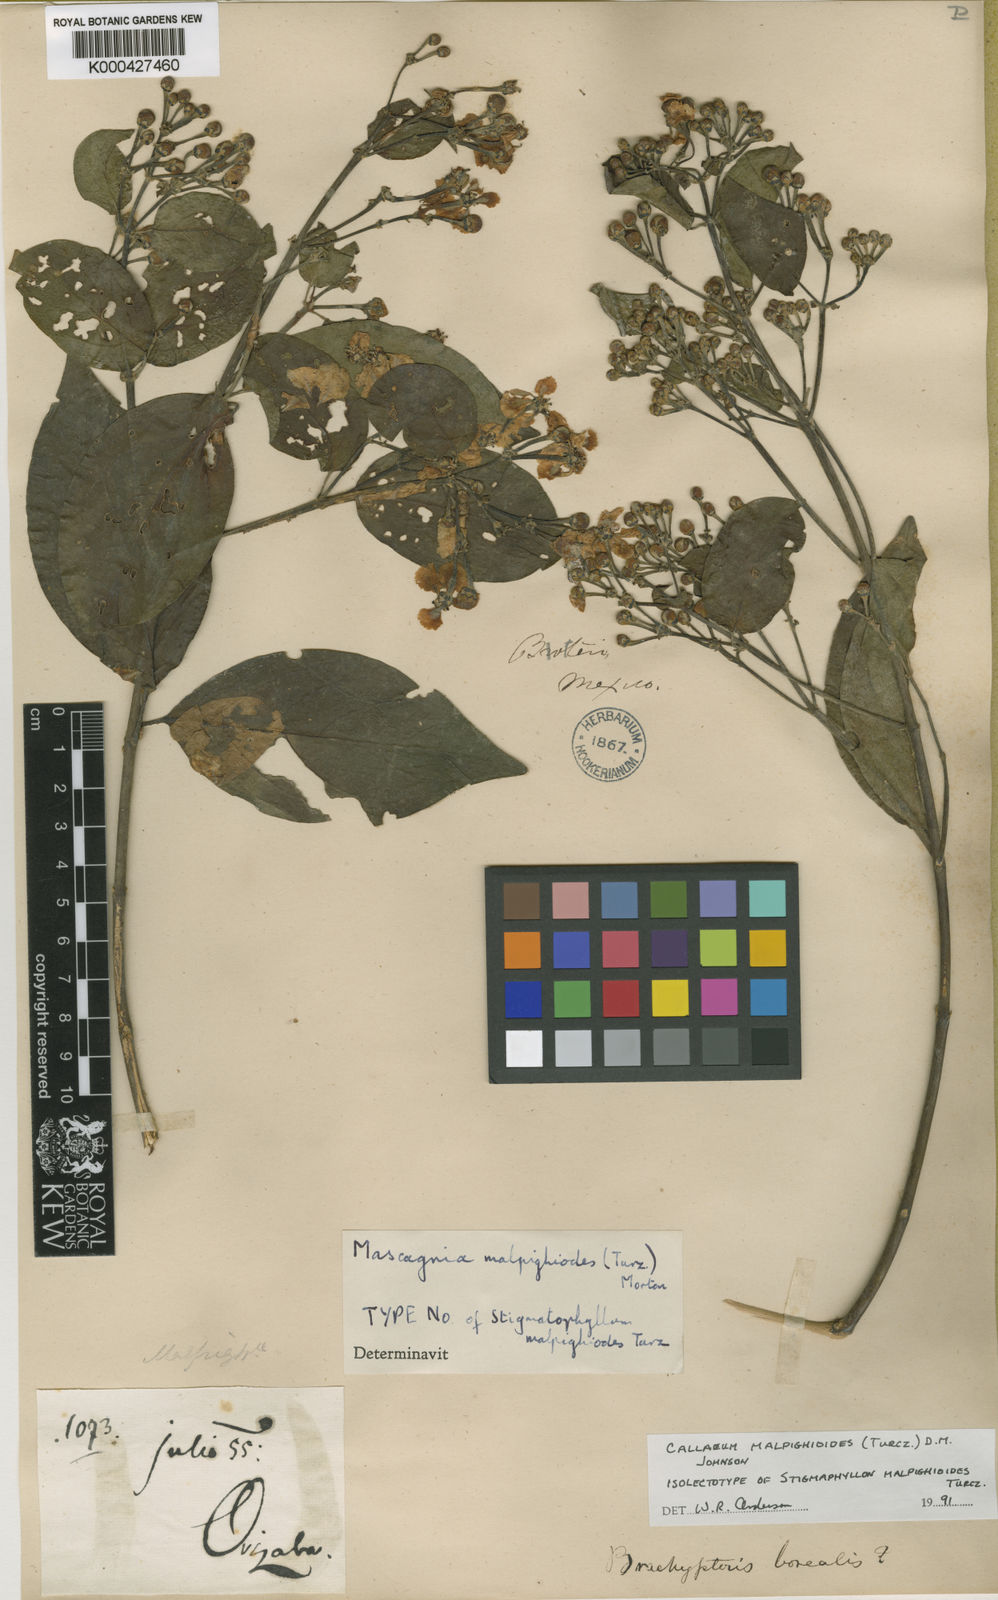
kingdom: Plantae
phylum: Tracheophyta
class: Magnoliopsida
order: Malpighiales
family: Malpighiaceae
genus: Callaeum
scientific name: Callaeum malpighioides
